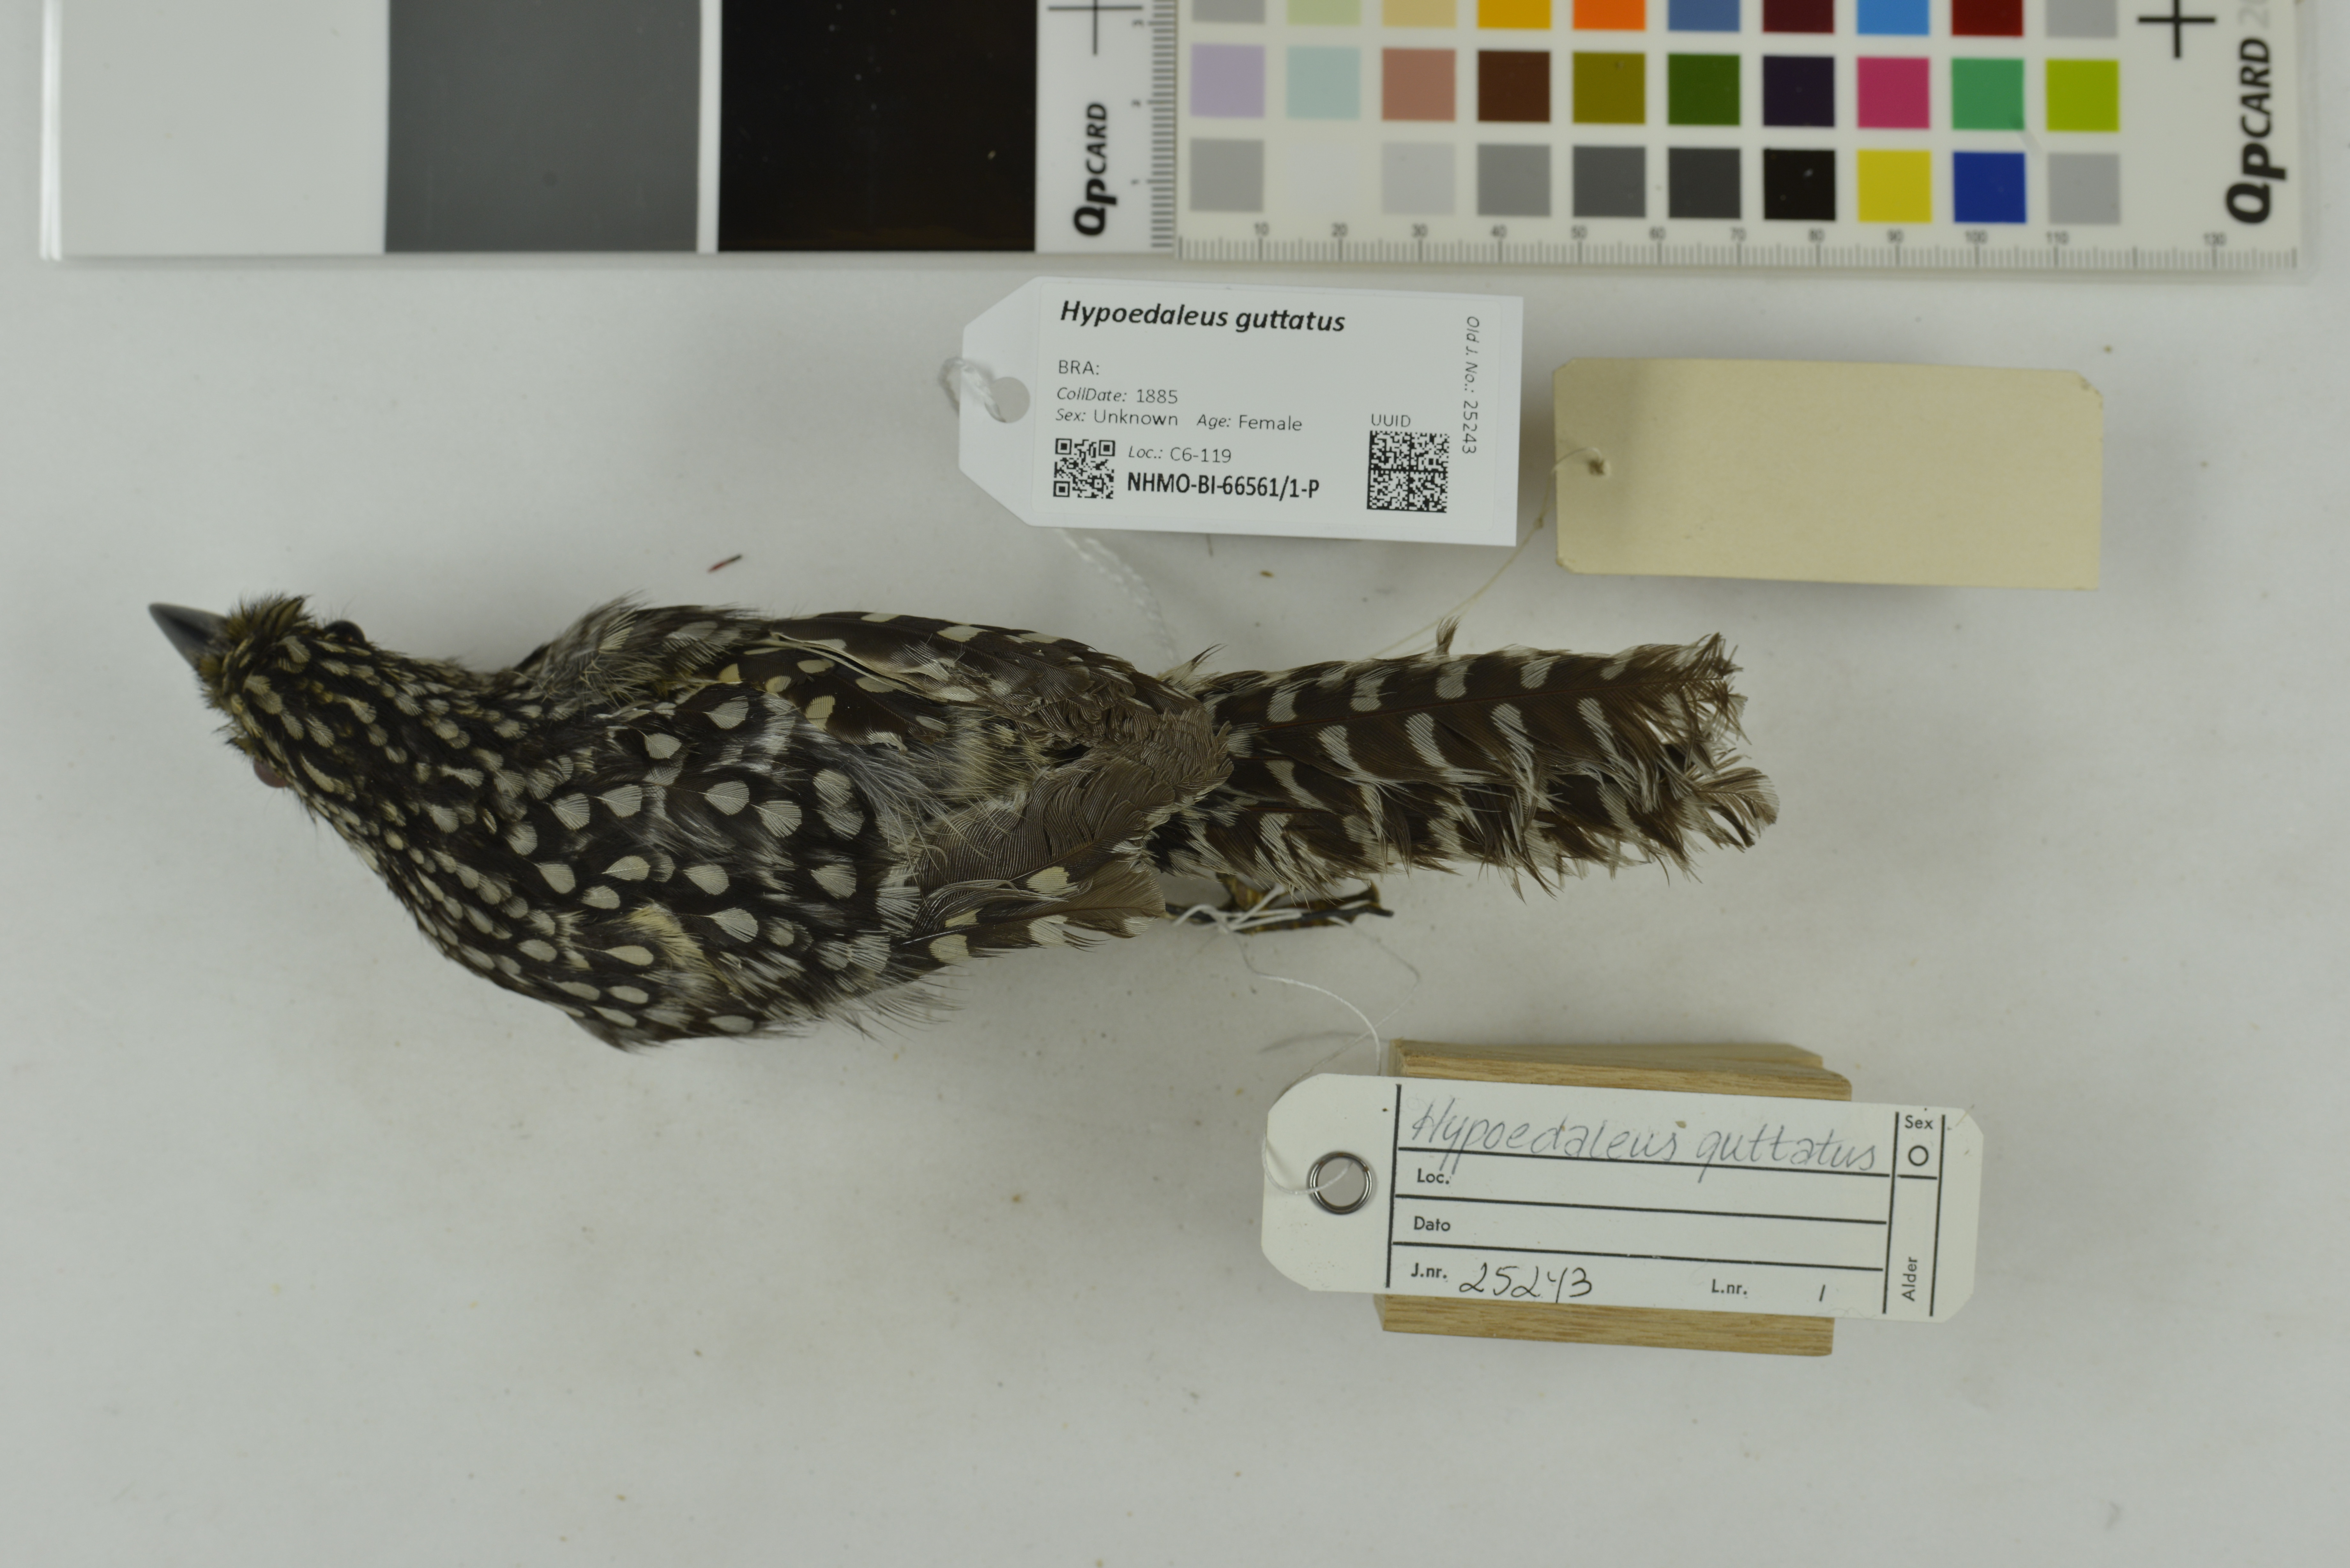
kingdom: Animalia
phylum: Chordata
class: Aves
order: Passeriformes
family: Thamnophilidae
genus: Hypoedaleus
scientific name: Hypoedaleus guttatus
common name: Spot-backed antshrike
